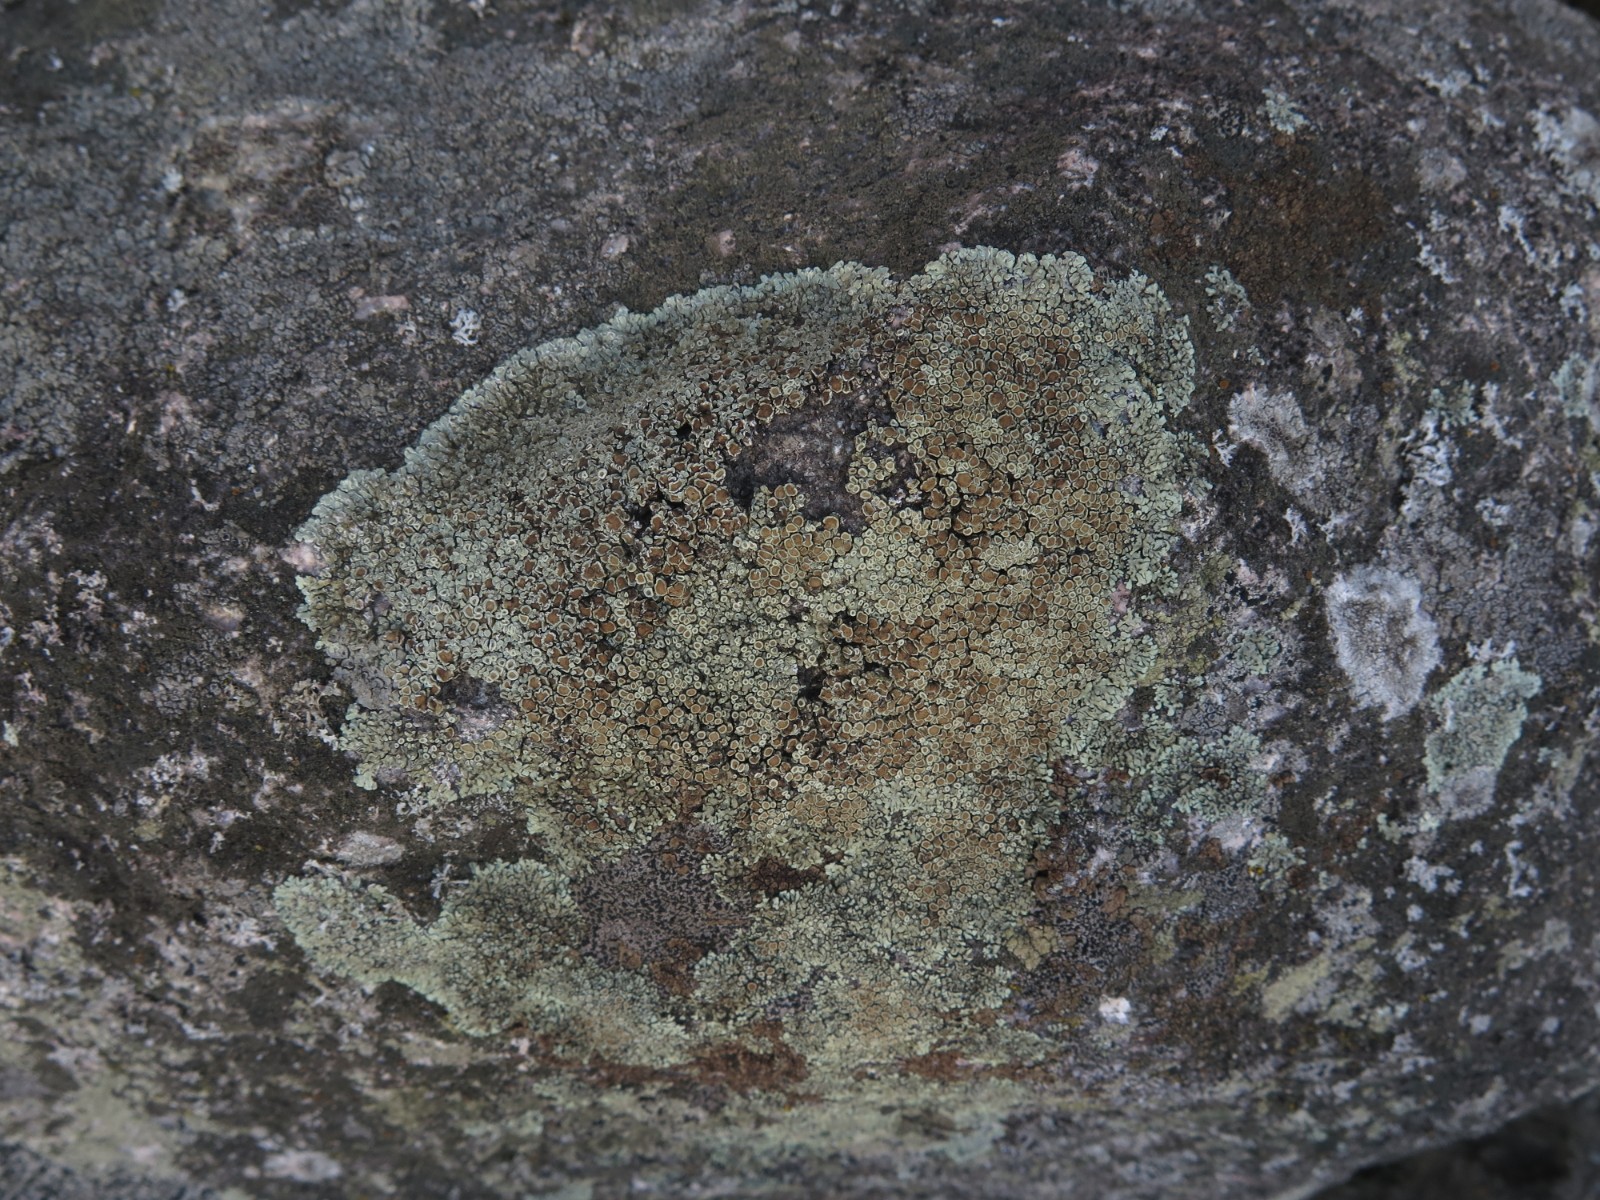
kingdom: Fungi
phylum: Ascomycota
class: Lecanoromycetes
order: Lecanorales
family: Lecanoraceae
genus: Protoparmeliopsis
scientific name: Protoparmeliopsis muralis
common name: randfliget kantskivelav
